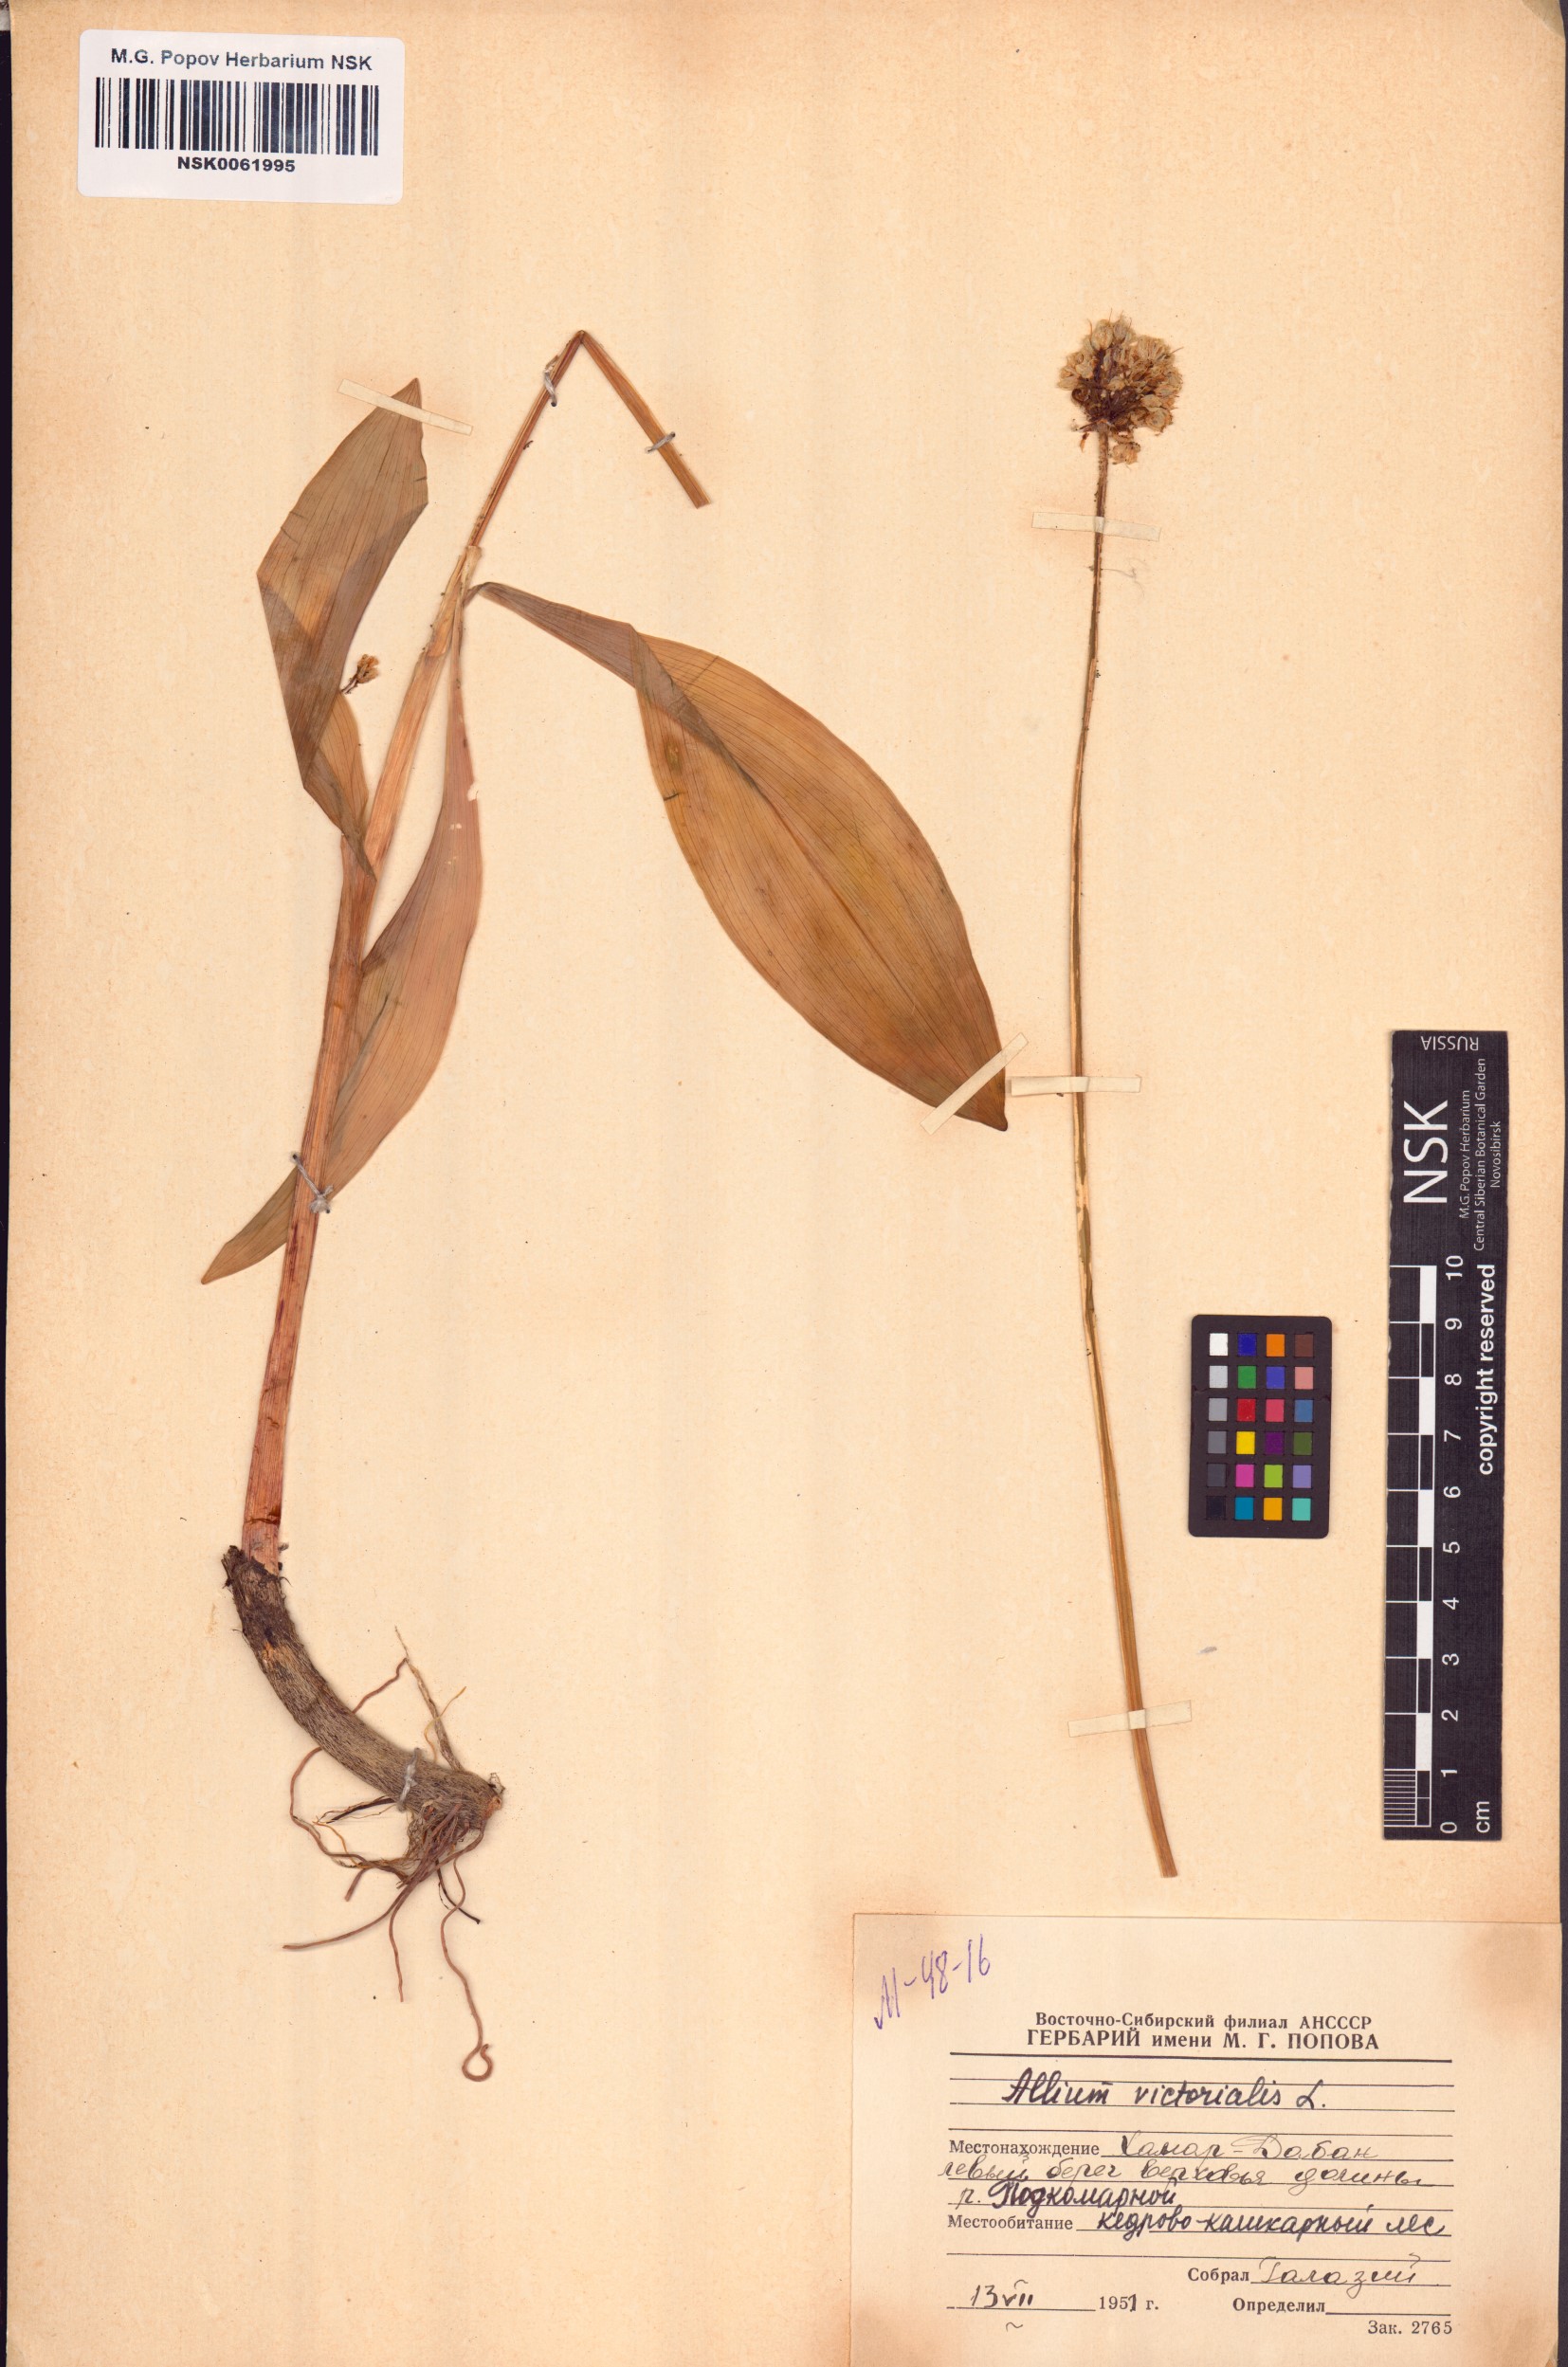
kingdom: Plantae
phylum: Tracheophyta
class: Liliopsida
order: Asparagales
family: Amaryllidaceae
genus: Allium
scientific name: Allium victorialis
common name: Alpine leek
